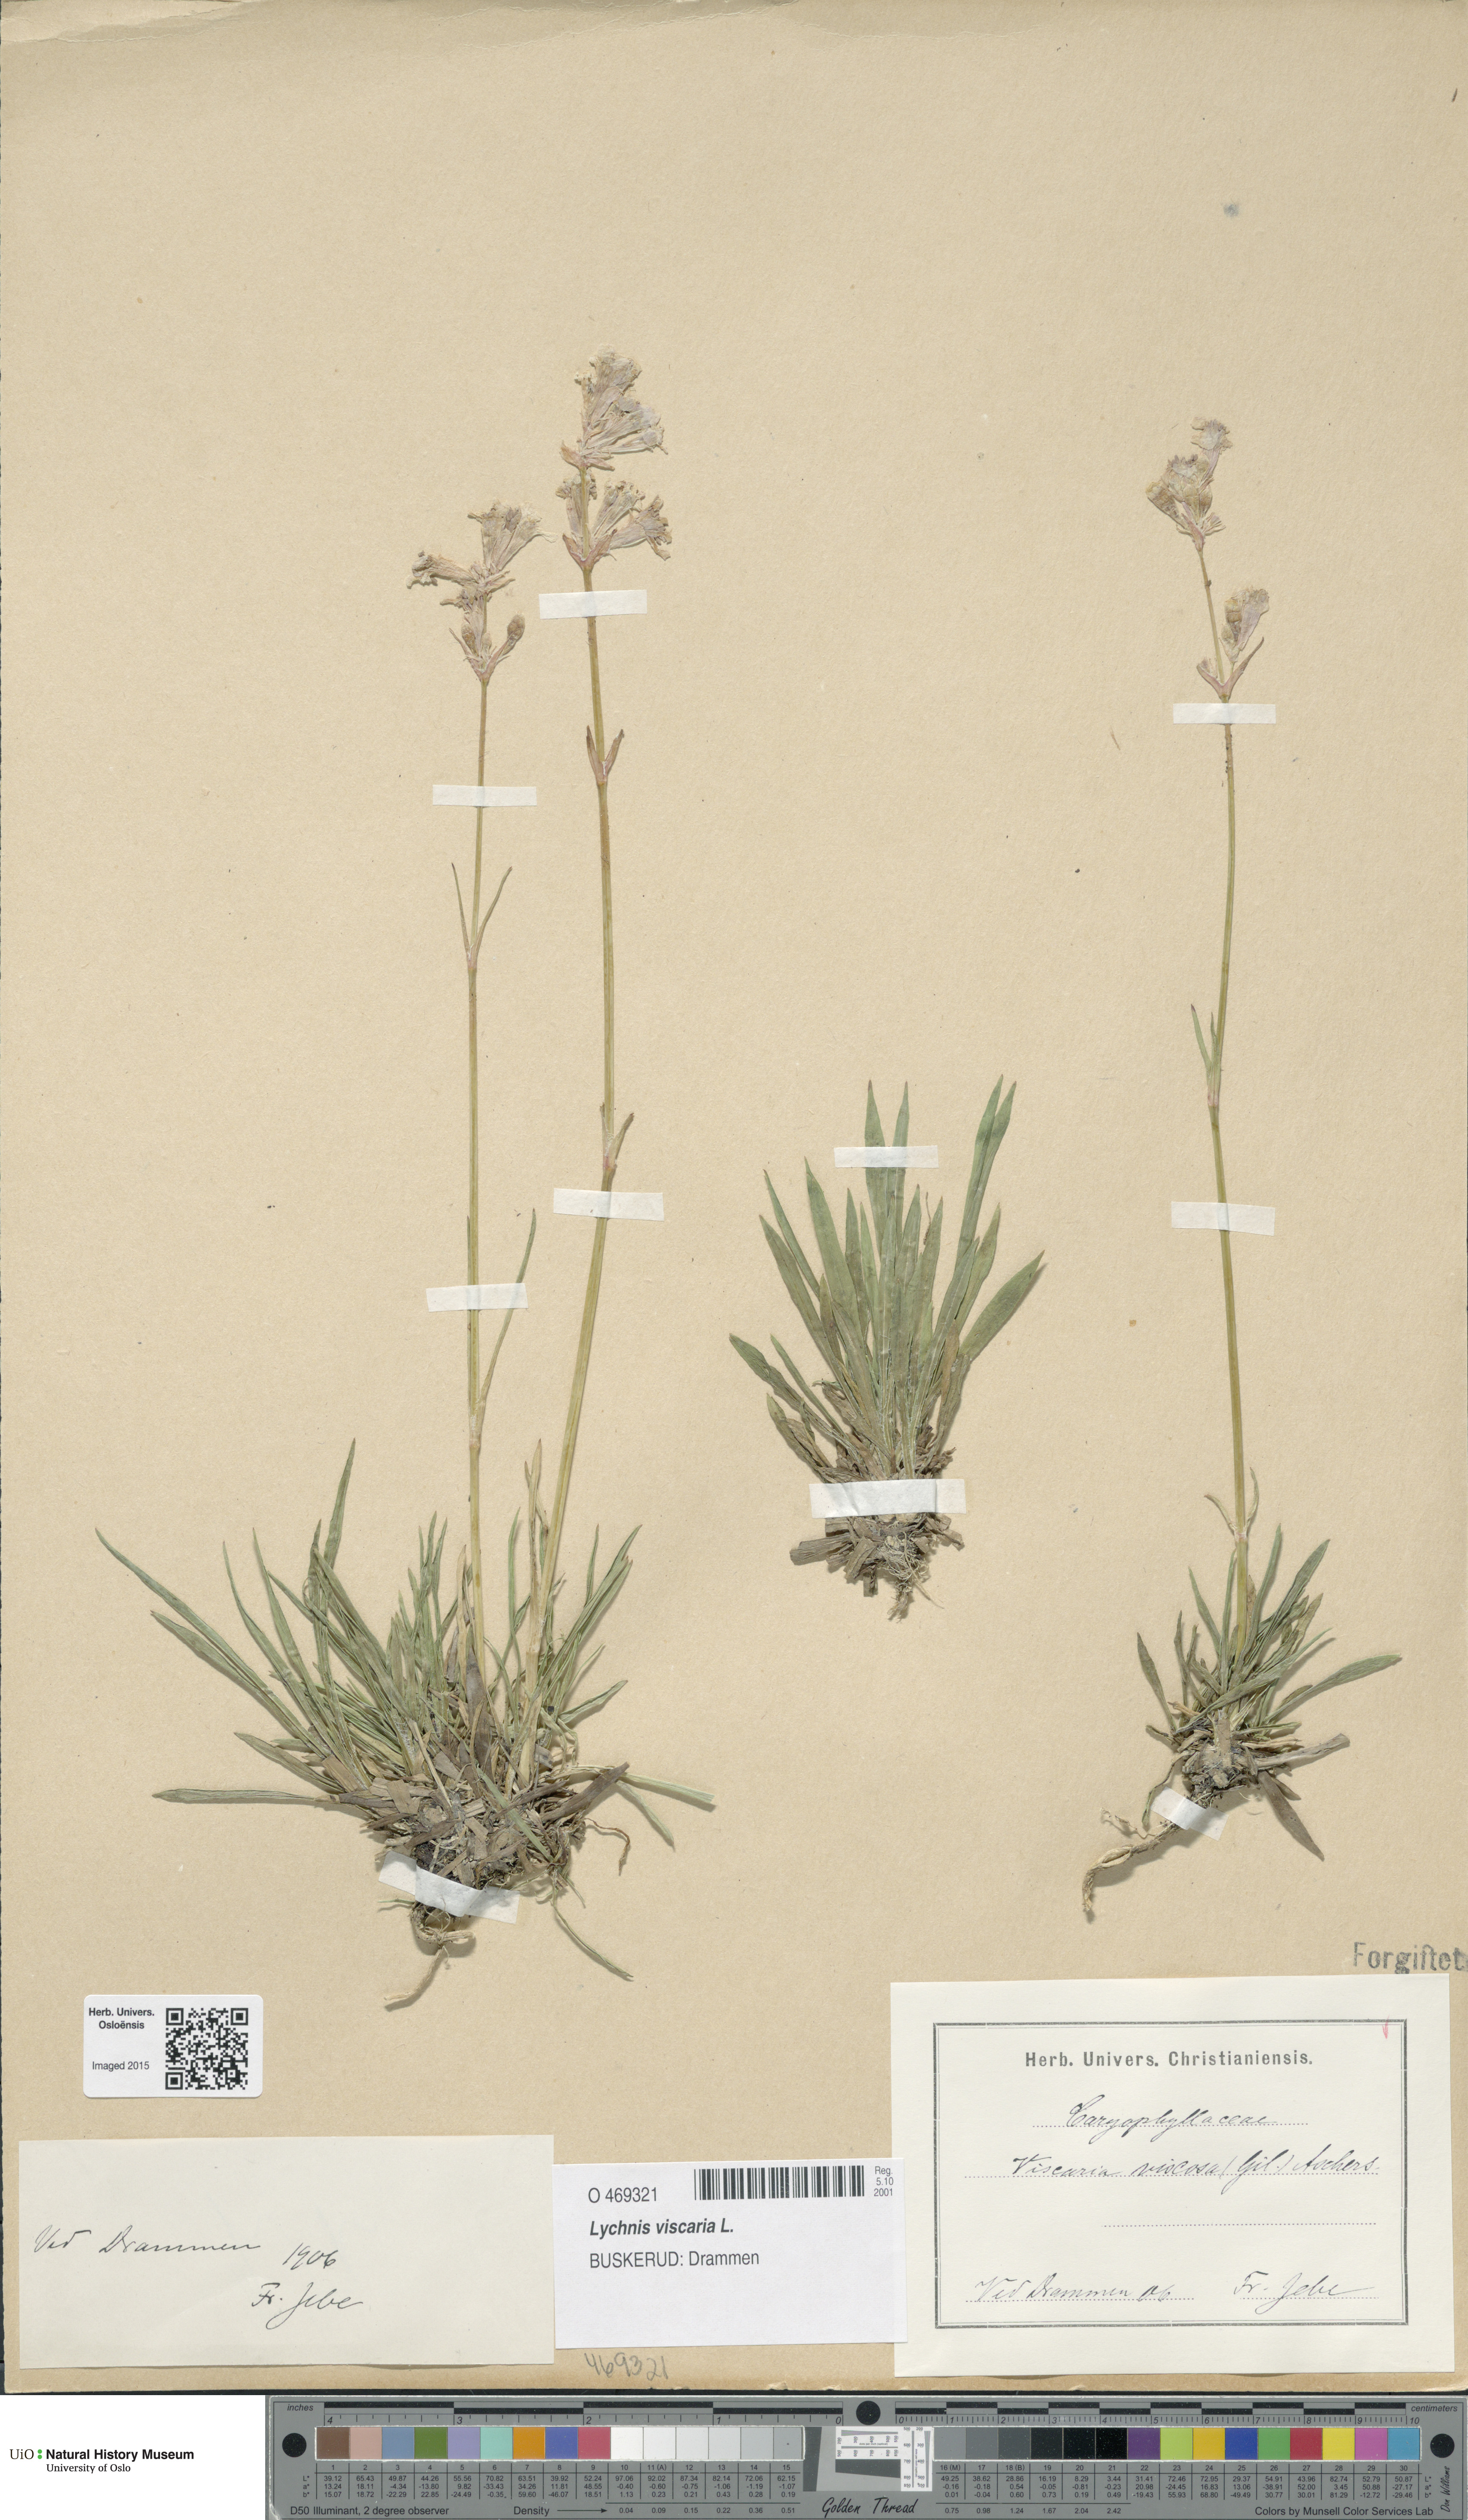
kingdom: Plantae
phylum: Tracheophyta
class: Magnoliopsida
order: Caryophyllales
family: Caryophyllaceae
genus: Viscaria
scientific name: Viscaria vulgaris
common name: Clammy campion
